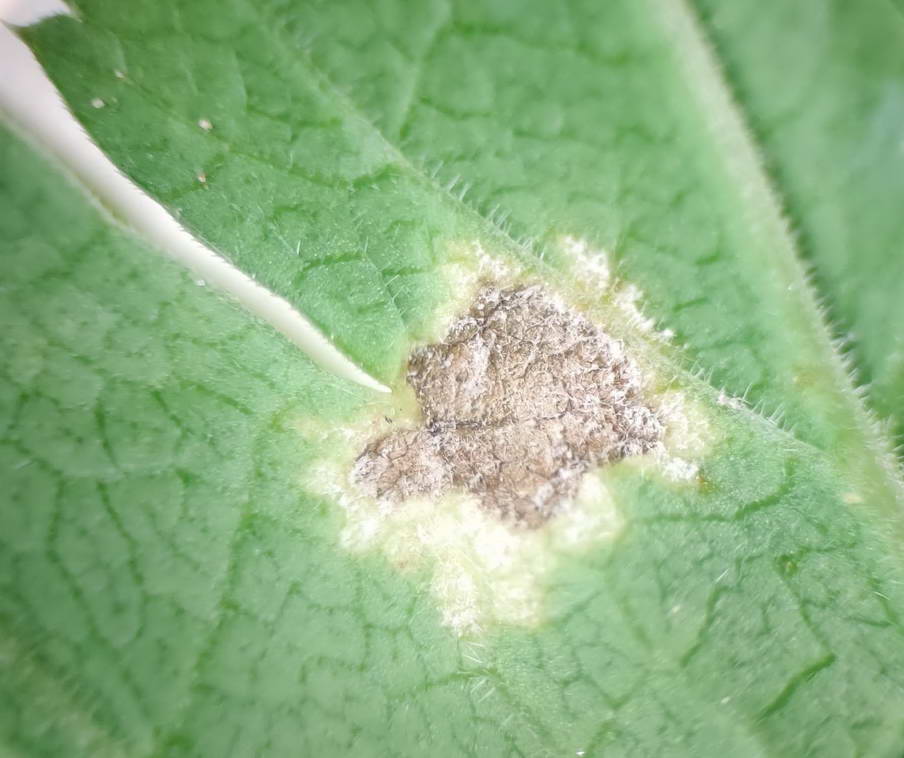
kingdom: Chromista
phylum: Oomycota
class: Peronosporea
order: Peronosporales
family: Peronosporaceae
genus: Peronospora
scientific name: Peronospora crustosa
